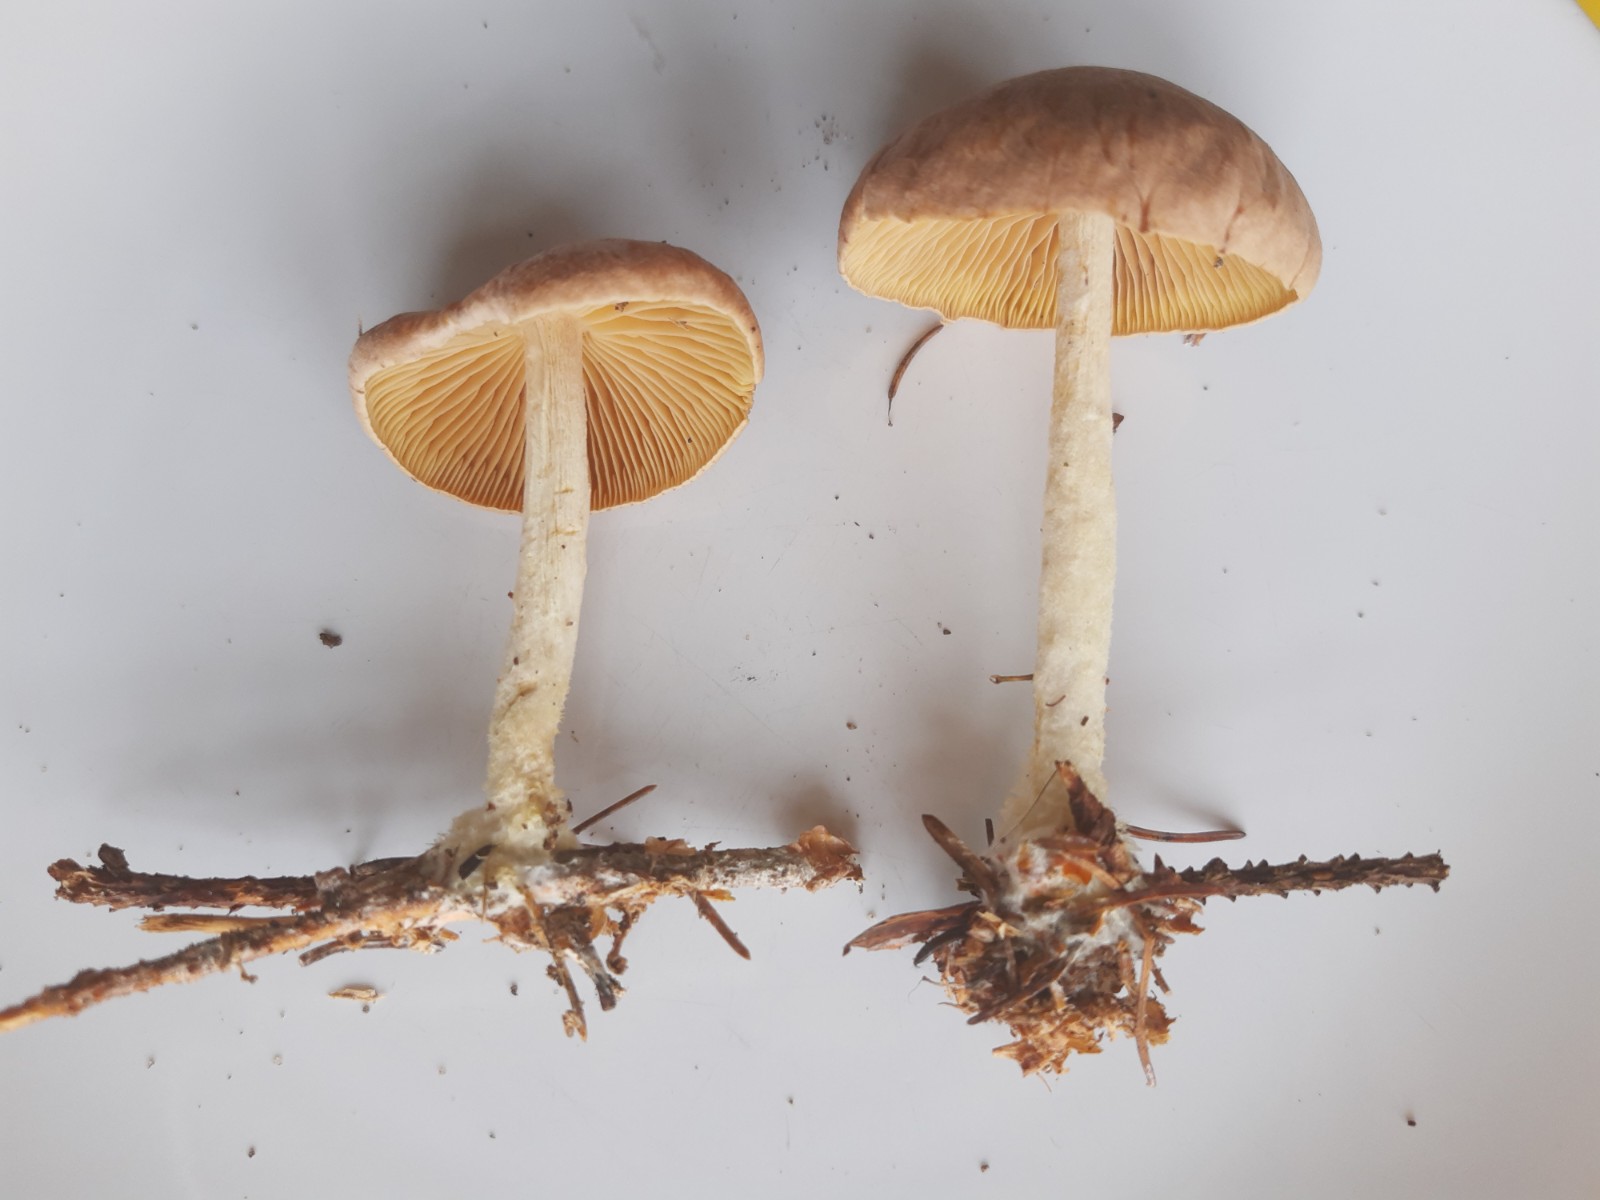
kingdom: Fungi
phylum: Basidiomycota
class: Agaricomycetes
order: Agaricales
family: Omphalotaceae
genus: Collybiopsis
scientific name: Collybiopsis peronata
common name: bestøvlet fladhat
